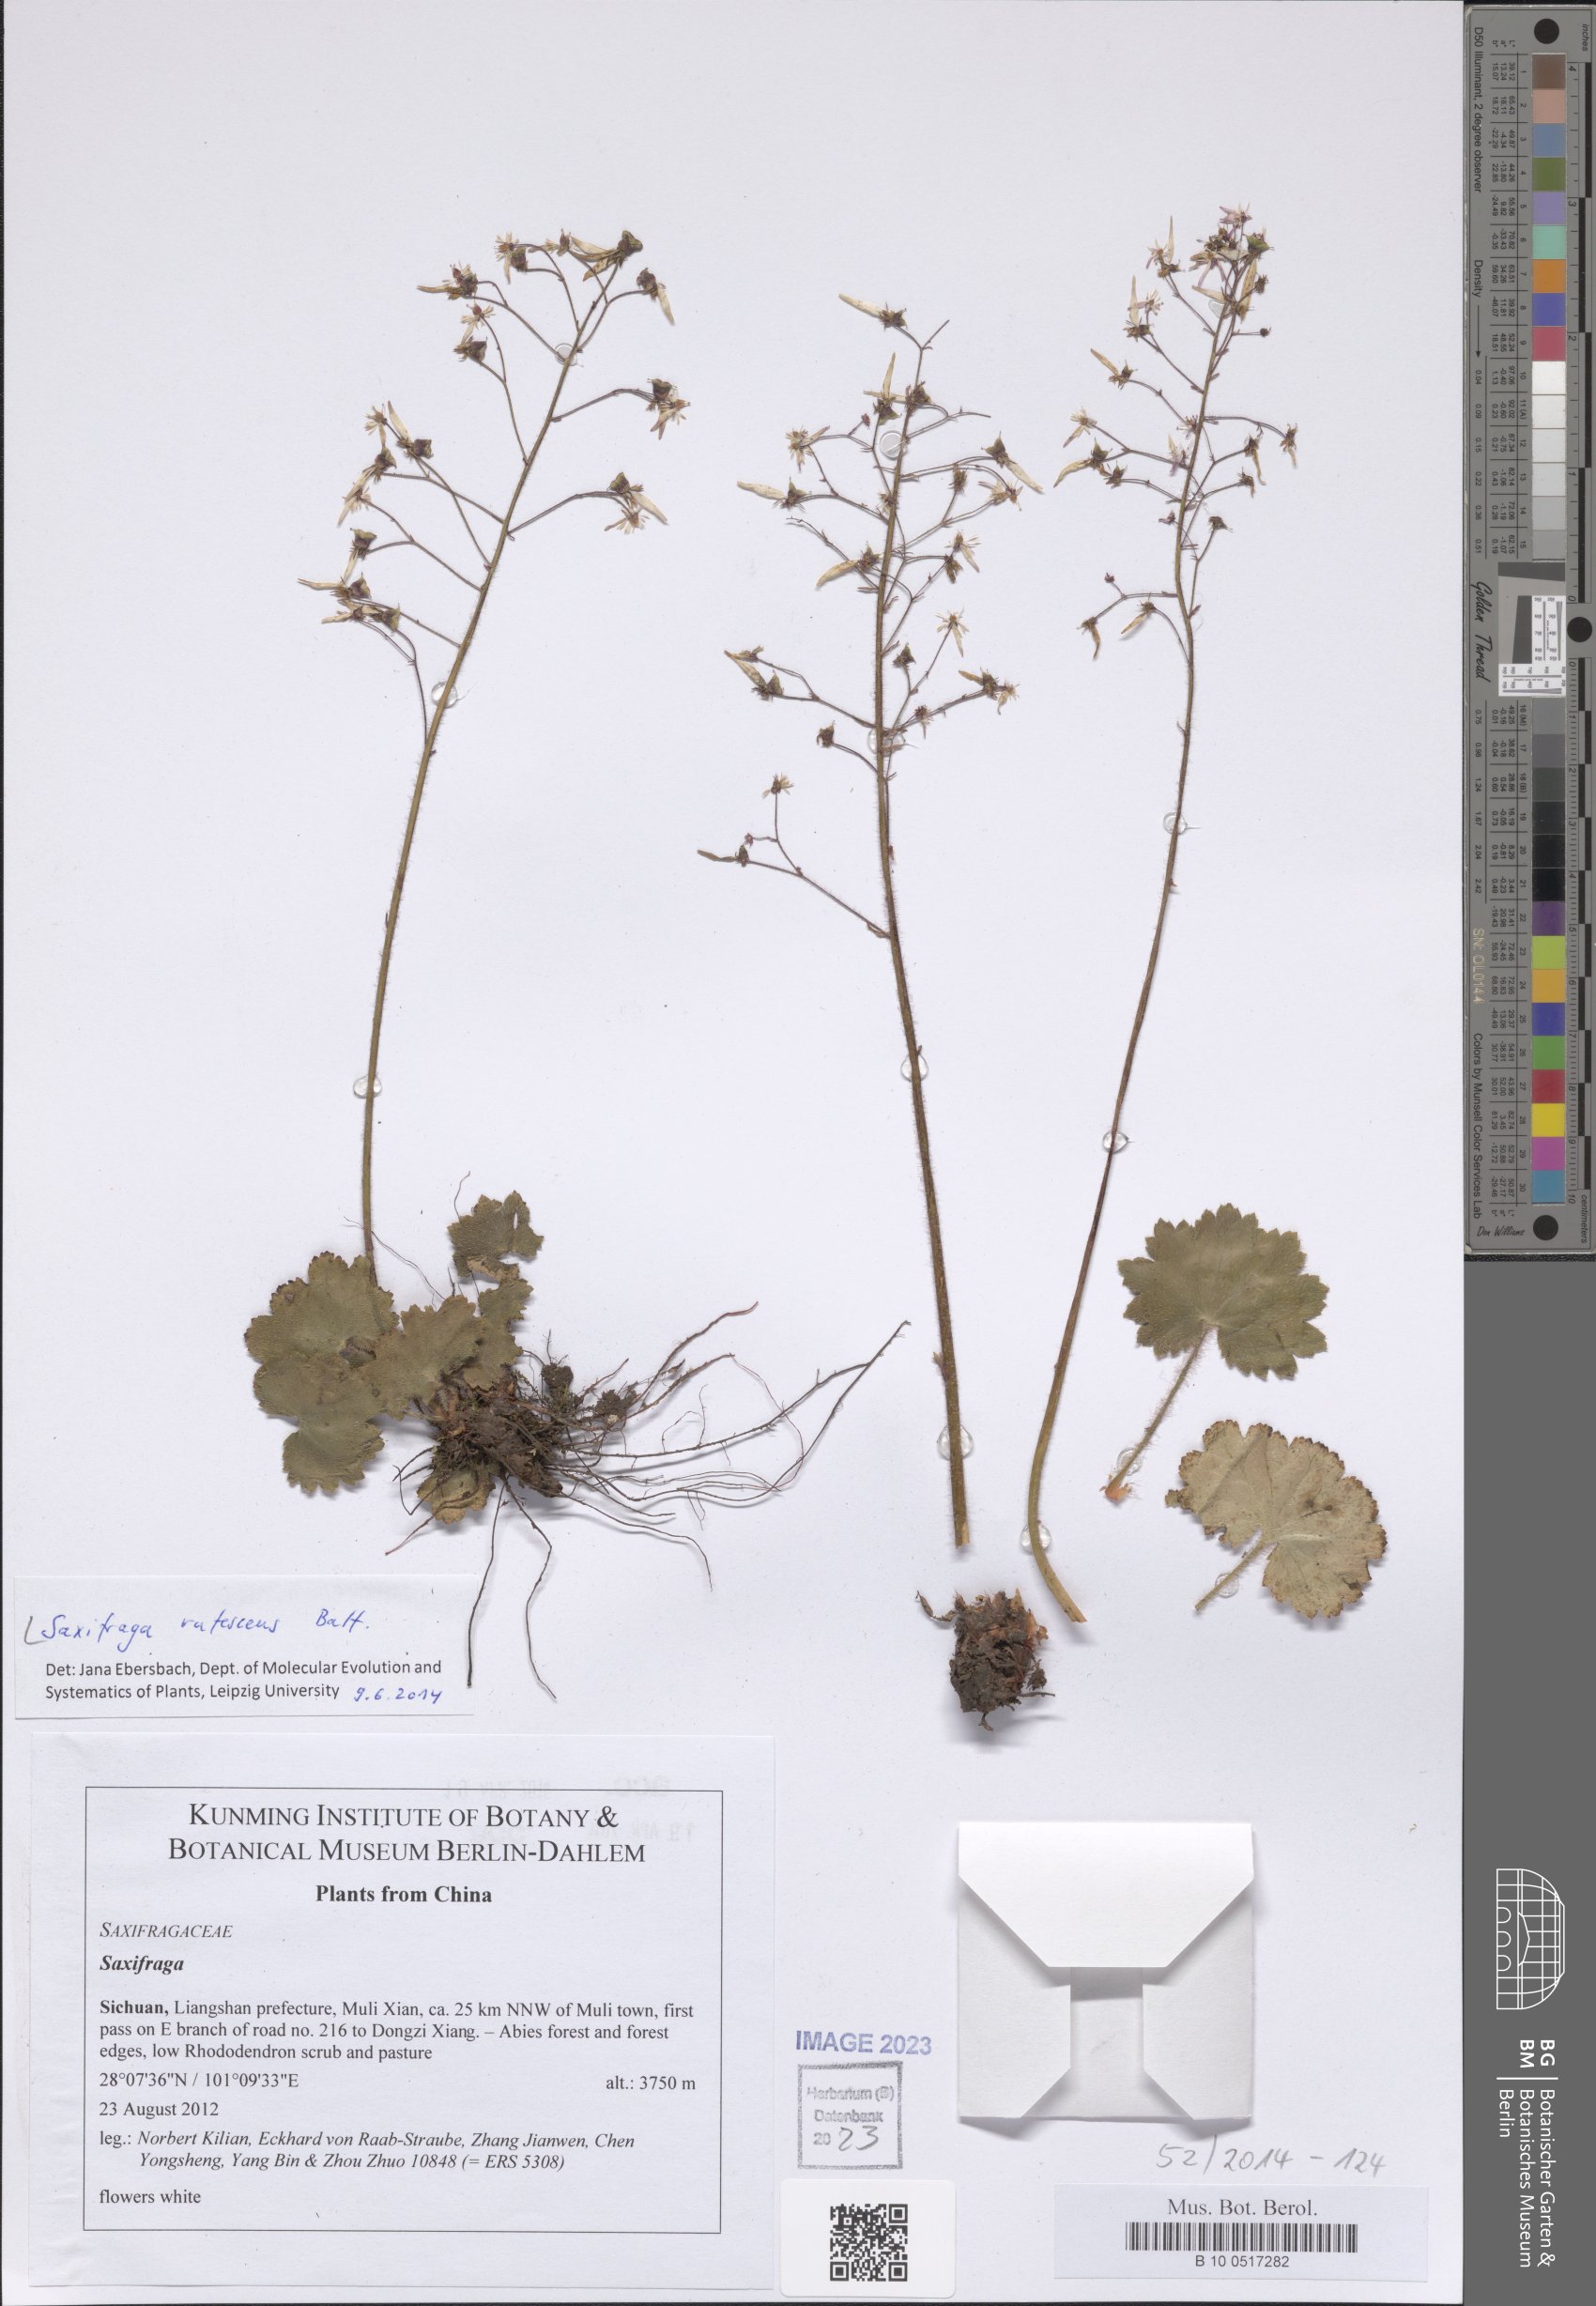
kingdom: Plantae
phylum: Tracheophyta
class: Magnoliopsida
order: Saxifragales
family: Saxifragaceae
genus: Saxifraga
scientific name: Saxifraga rufescens
